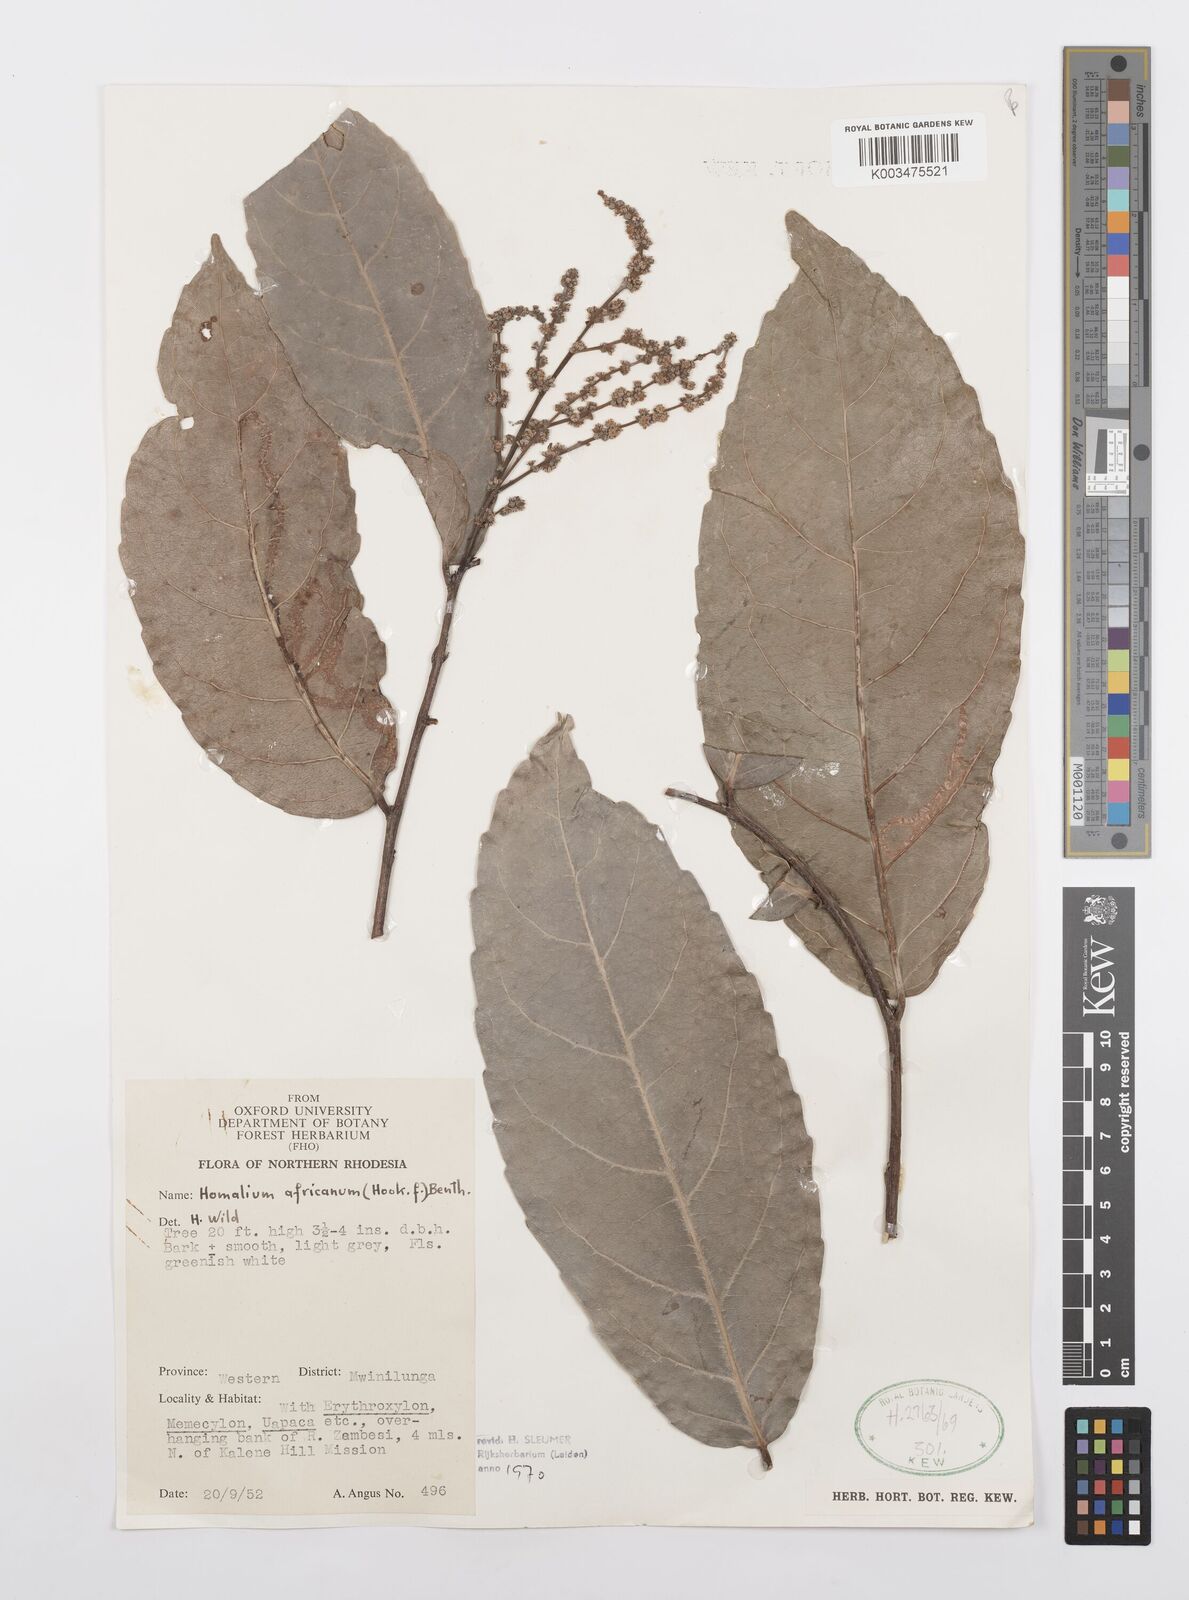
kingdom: Plantae
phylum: Tracheophyta
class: Magnoliopsida
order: Malpighiales
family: Salicaceae
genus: Homalium
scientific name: Homalium africanum
